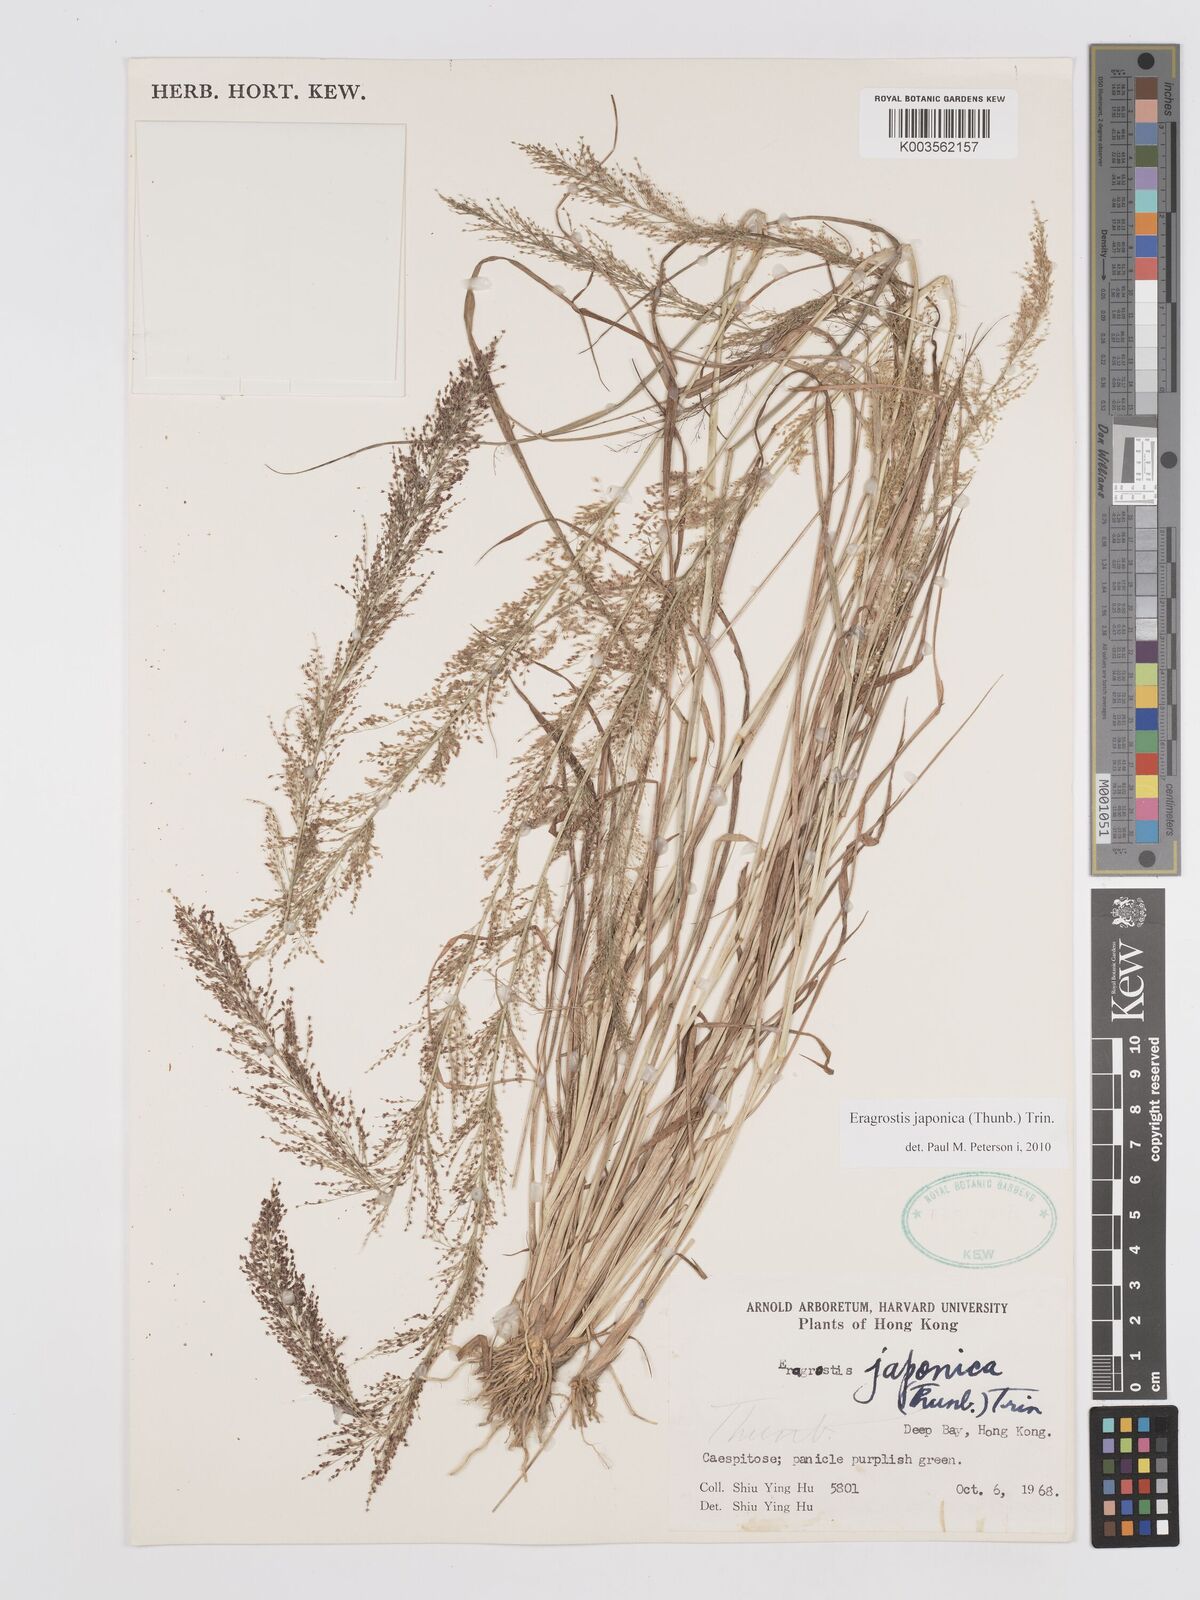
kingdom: Plantae
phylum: Tracheophyta
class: Liliopsida
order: Poales
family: Poaceae
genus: Eragrostis
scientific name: Eragrostis japonica
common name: Pond lovegrass
